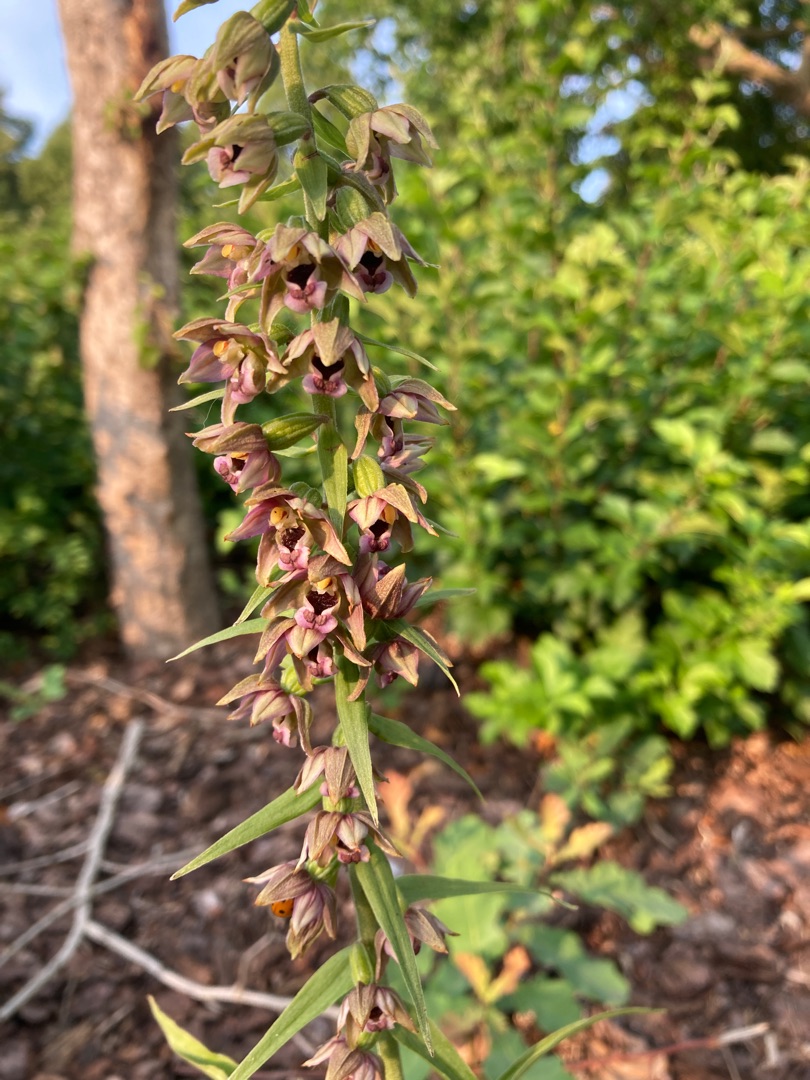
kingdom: Plantae
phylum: Tracheophyta
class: Liliopsida
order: Asparagales
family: Orchidaceae
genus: Epipactis
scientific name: Epipactis helleborine
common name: Skov-hullæbe
